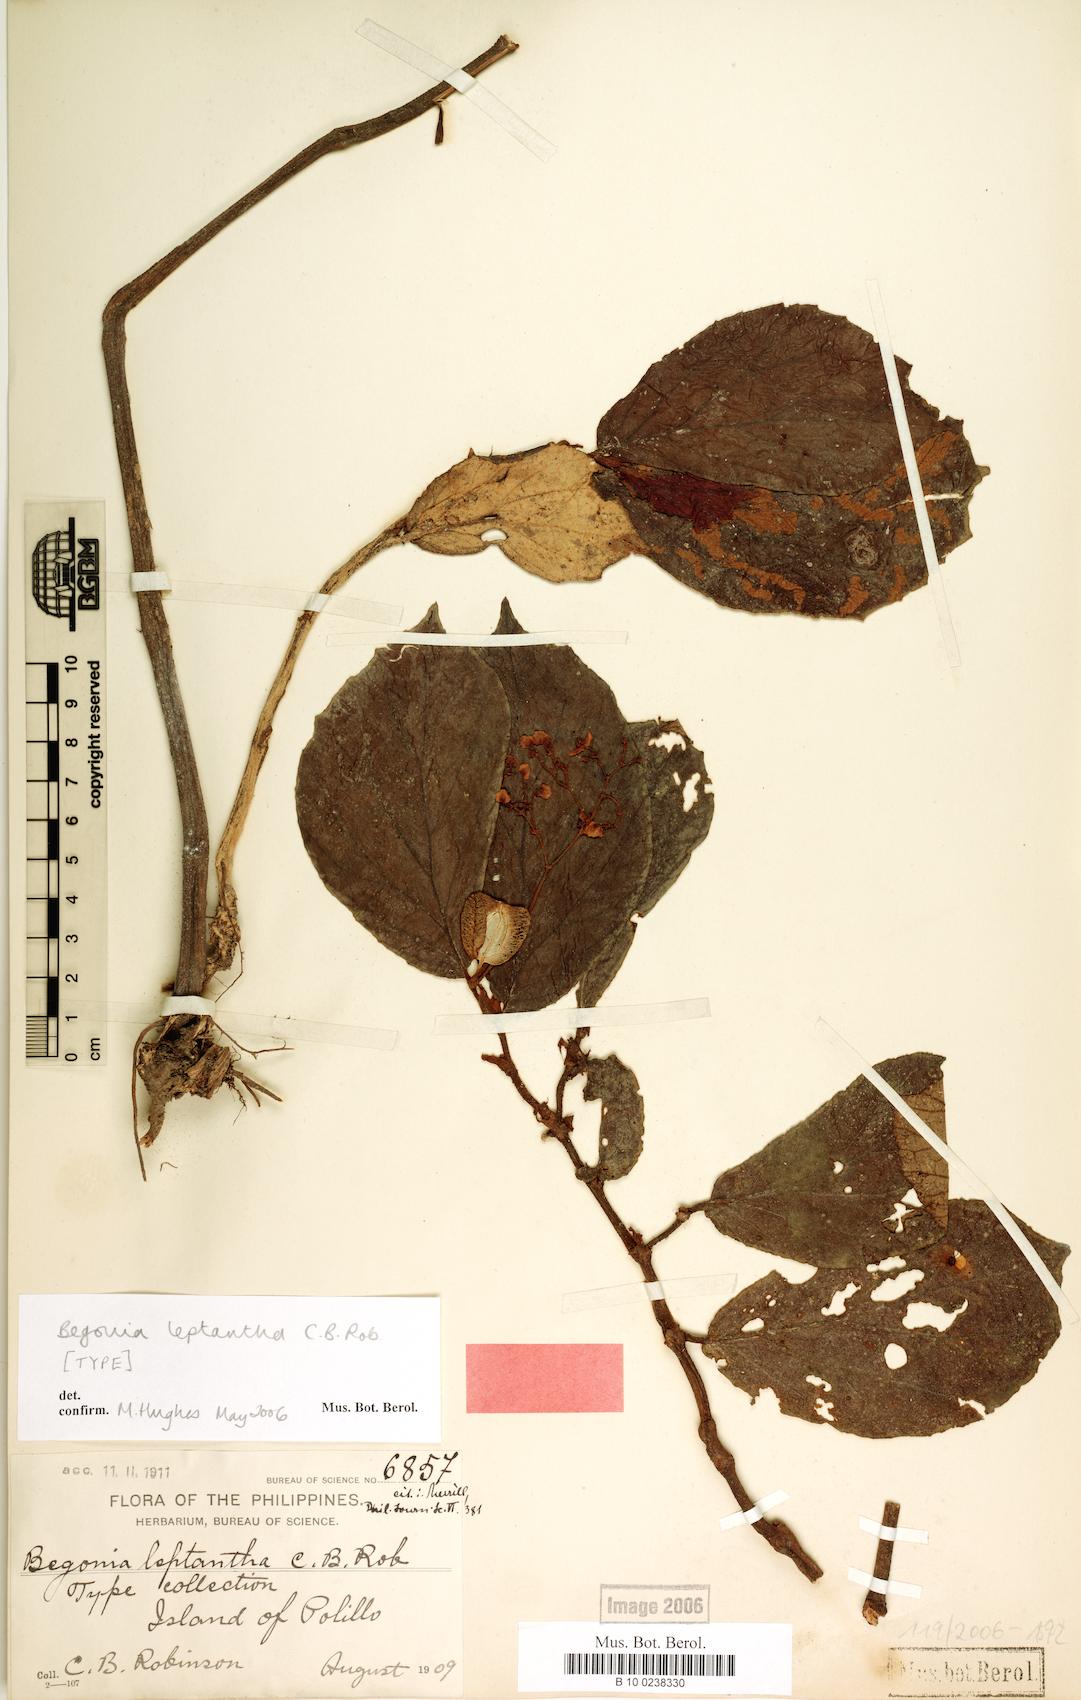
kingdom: Plantae
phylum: Tracheophyta
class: Magnoliopsida
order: Cucurbitales
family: Begoniaceae
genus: Begonia
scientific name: Begonia leptantha
